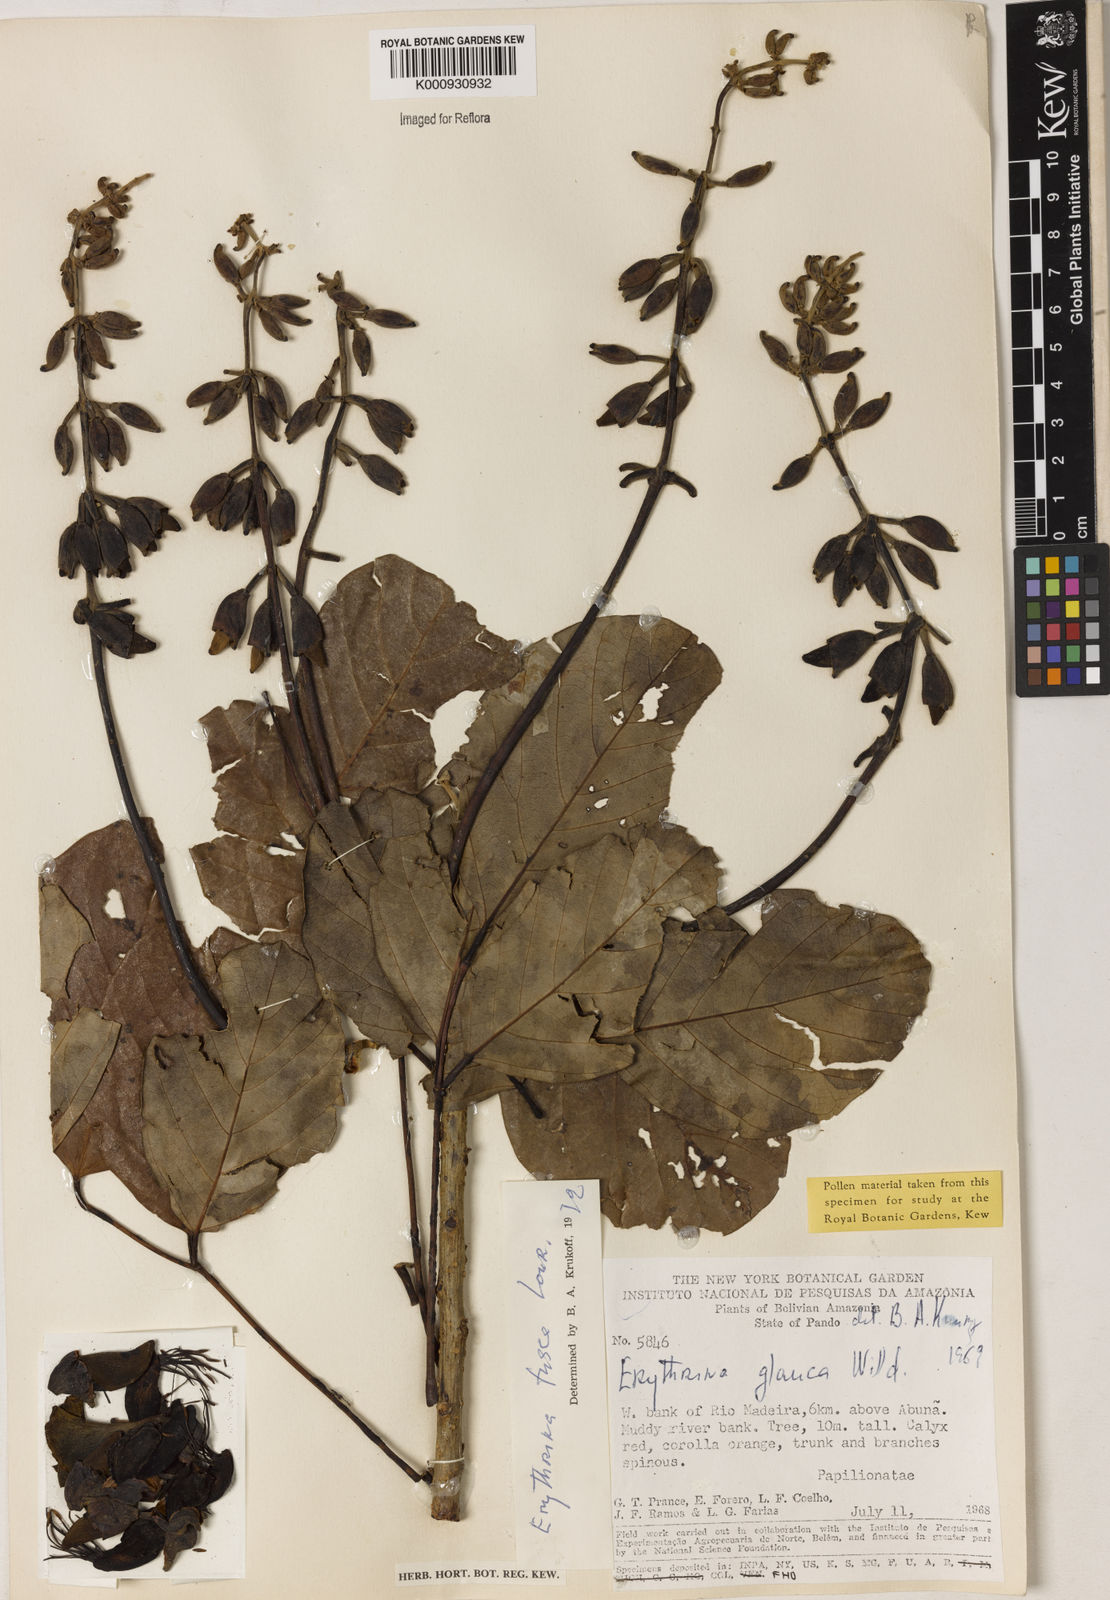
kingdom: Plantae
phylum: Tracheophyta
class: Magnoliopsida
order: Fabales
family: Fabaceae
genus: Erythrina
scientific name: Erythrina fusca
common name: Coral-bean
